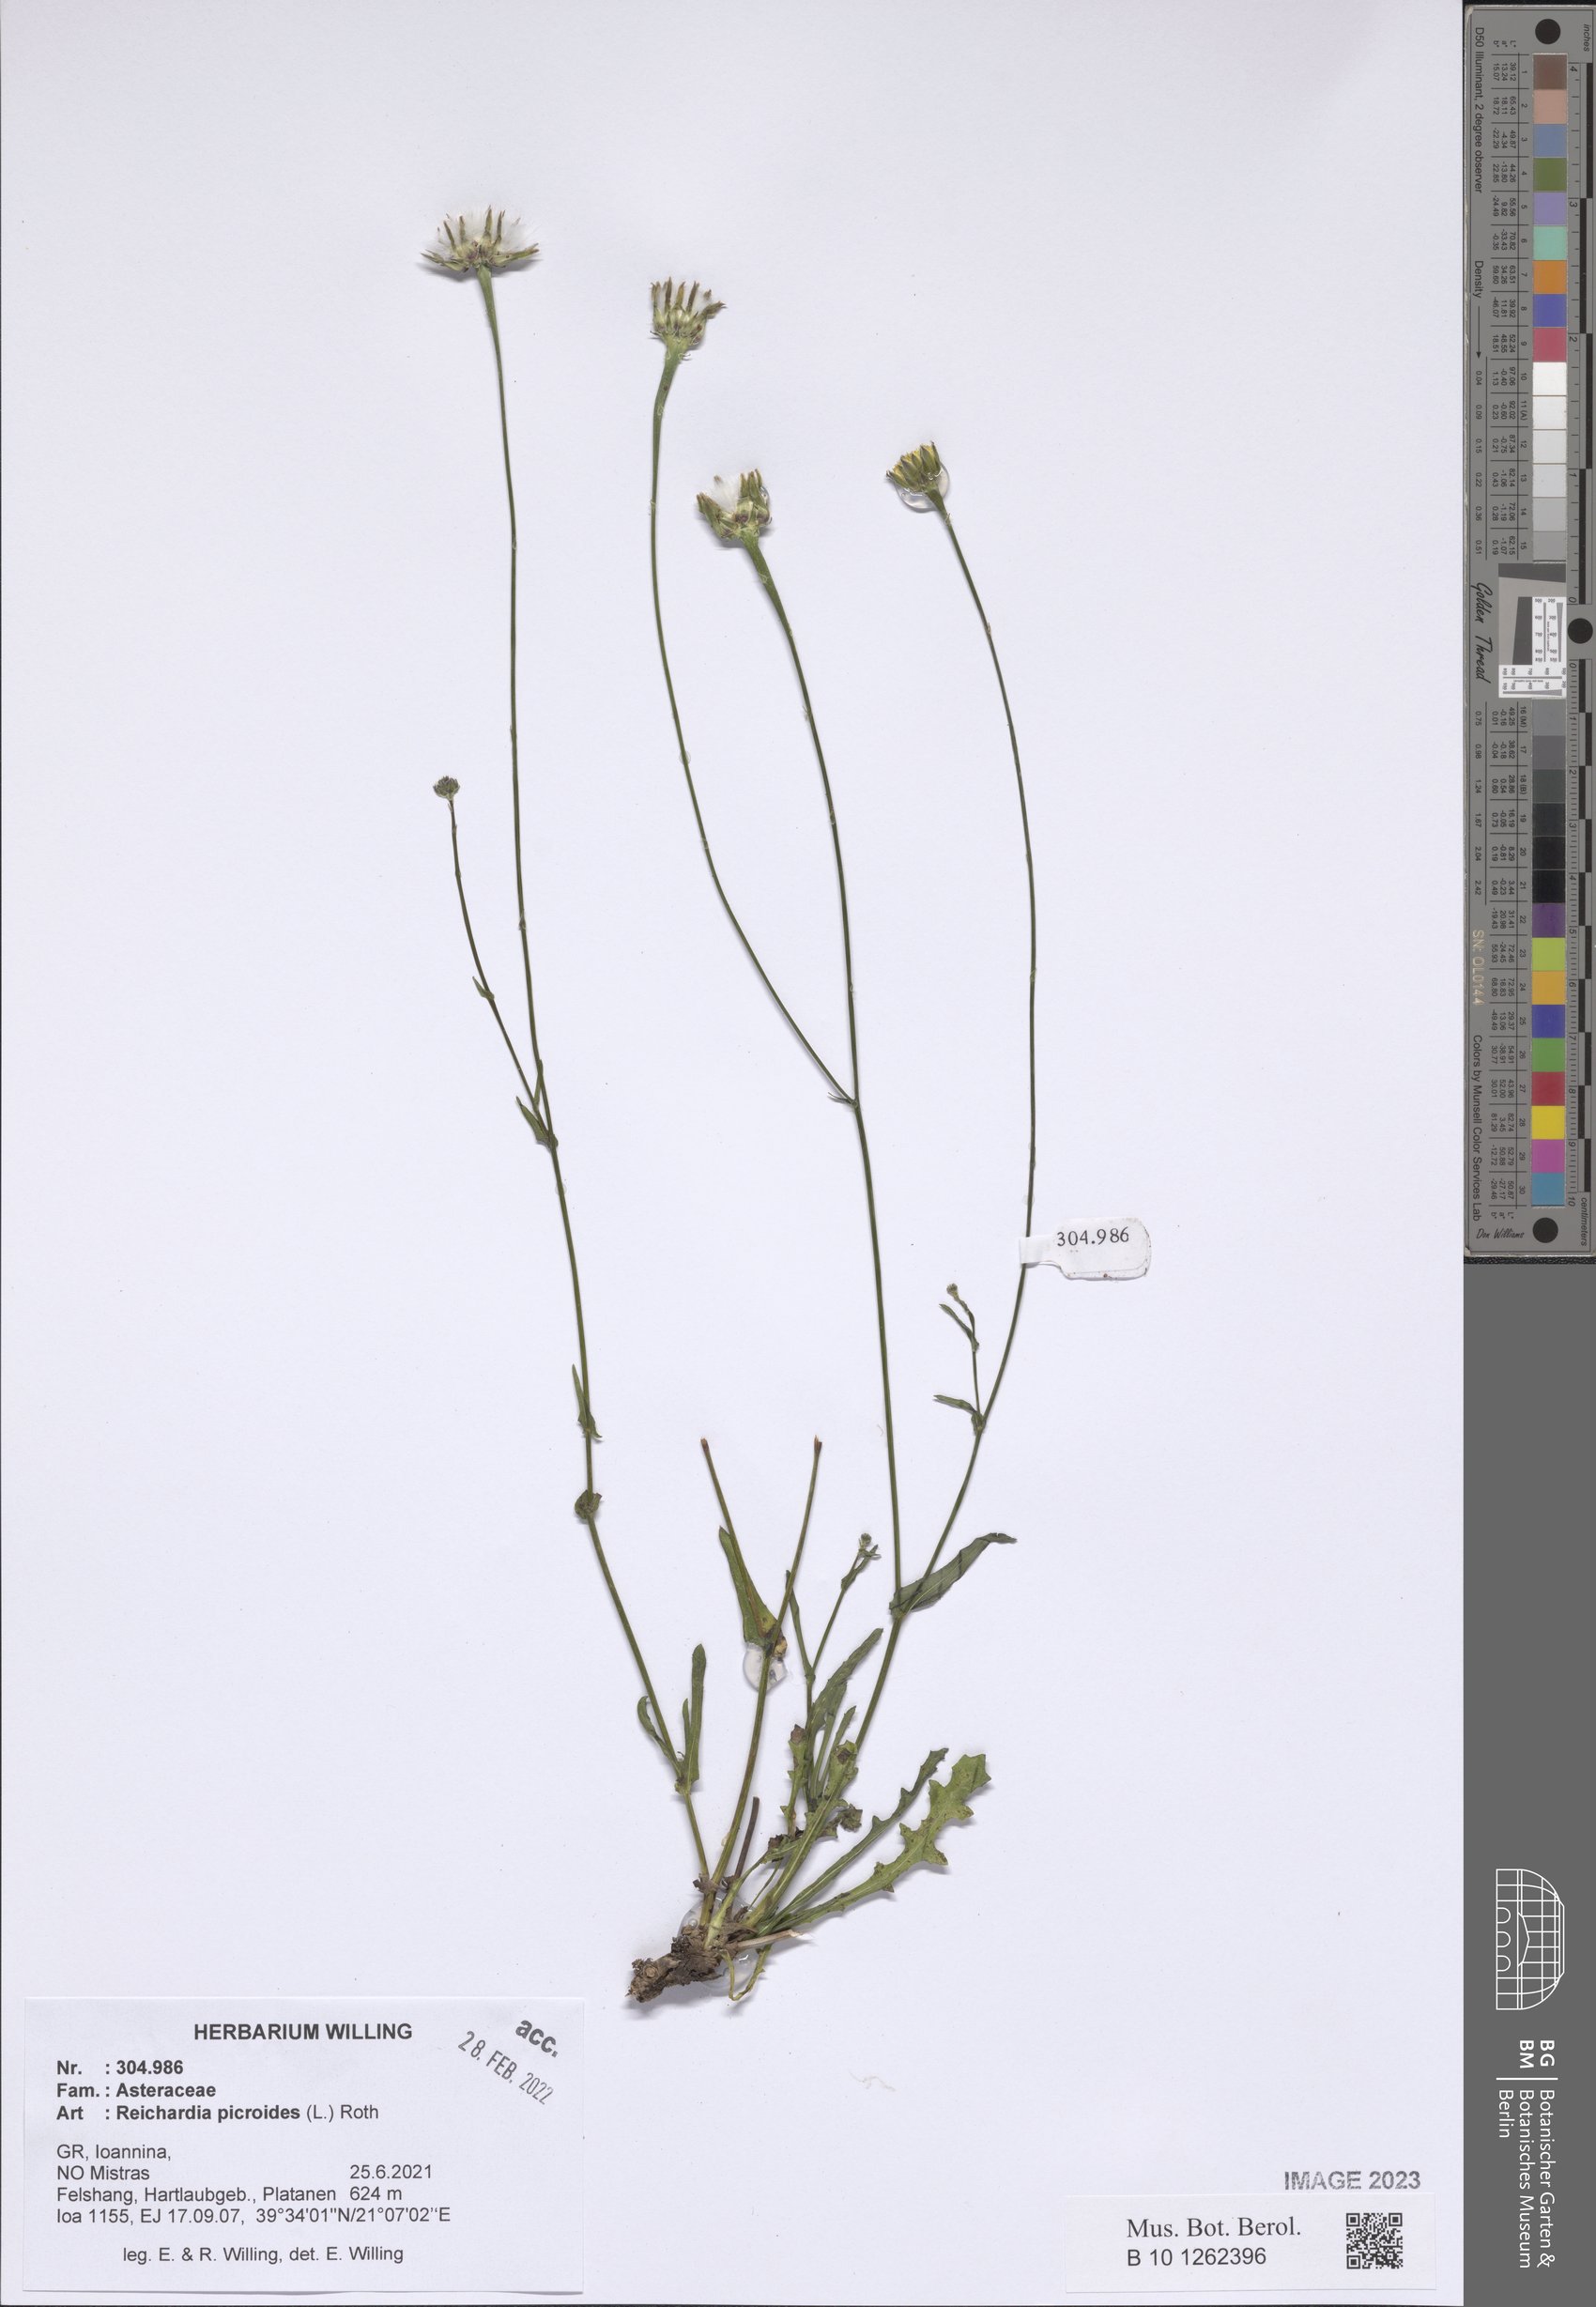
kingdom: Plantae
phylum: Tracheophyta
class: Magnoliopsida
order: Asterales
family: Asteraceae
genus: Reichardia
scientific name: Reichardia picroides
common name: Common brighteyes
